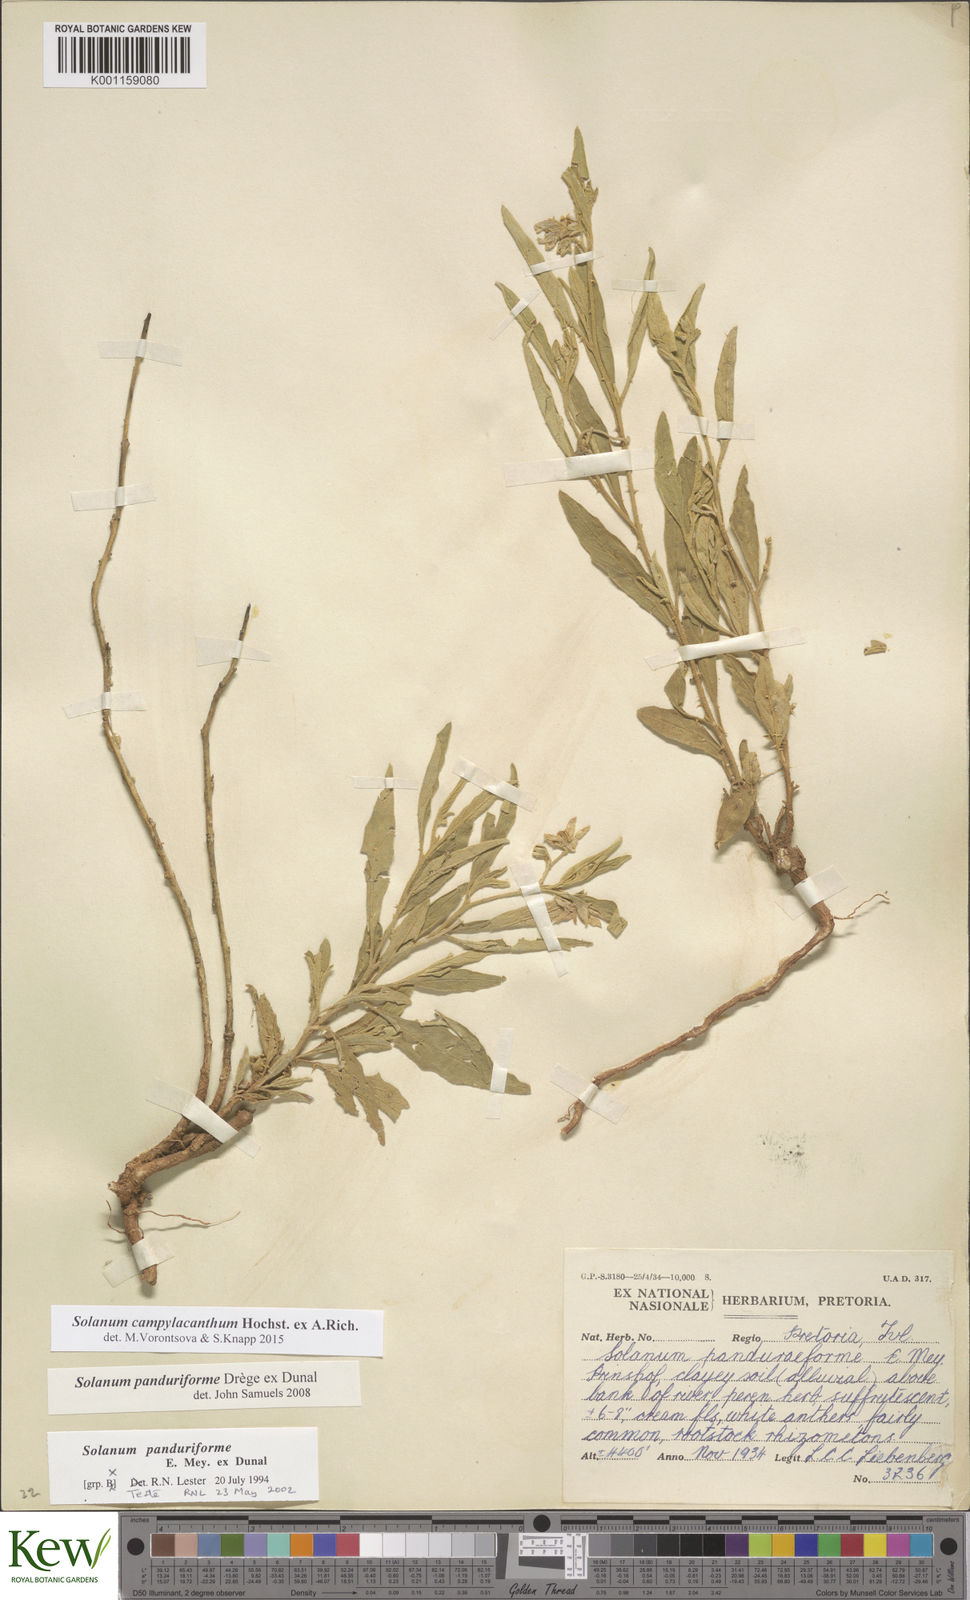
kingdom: Plantae
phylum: Tracheophyta
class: Magnoliopsida
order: Solanales
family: Solanaceae
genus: Solanum
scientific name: Solanum campylacanthum
